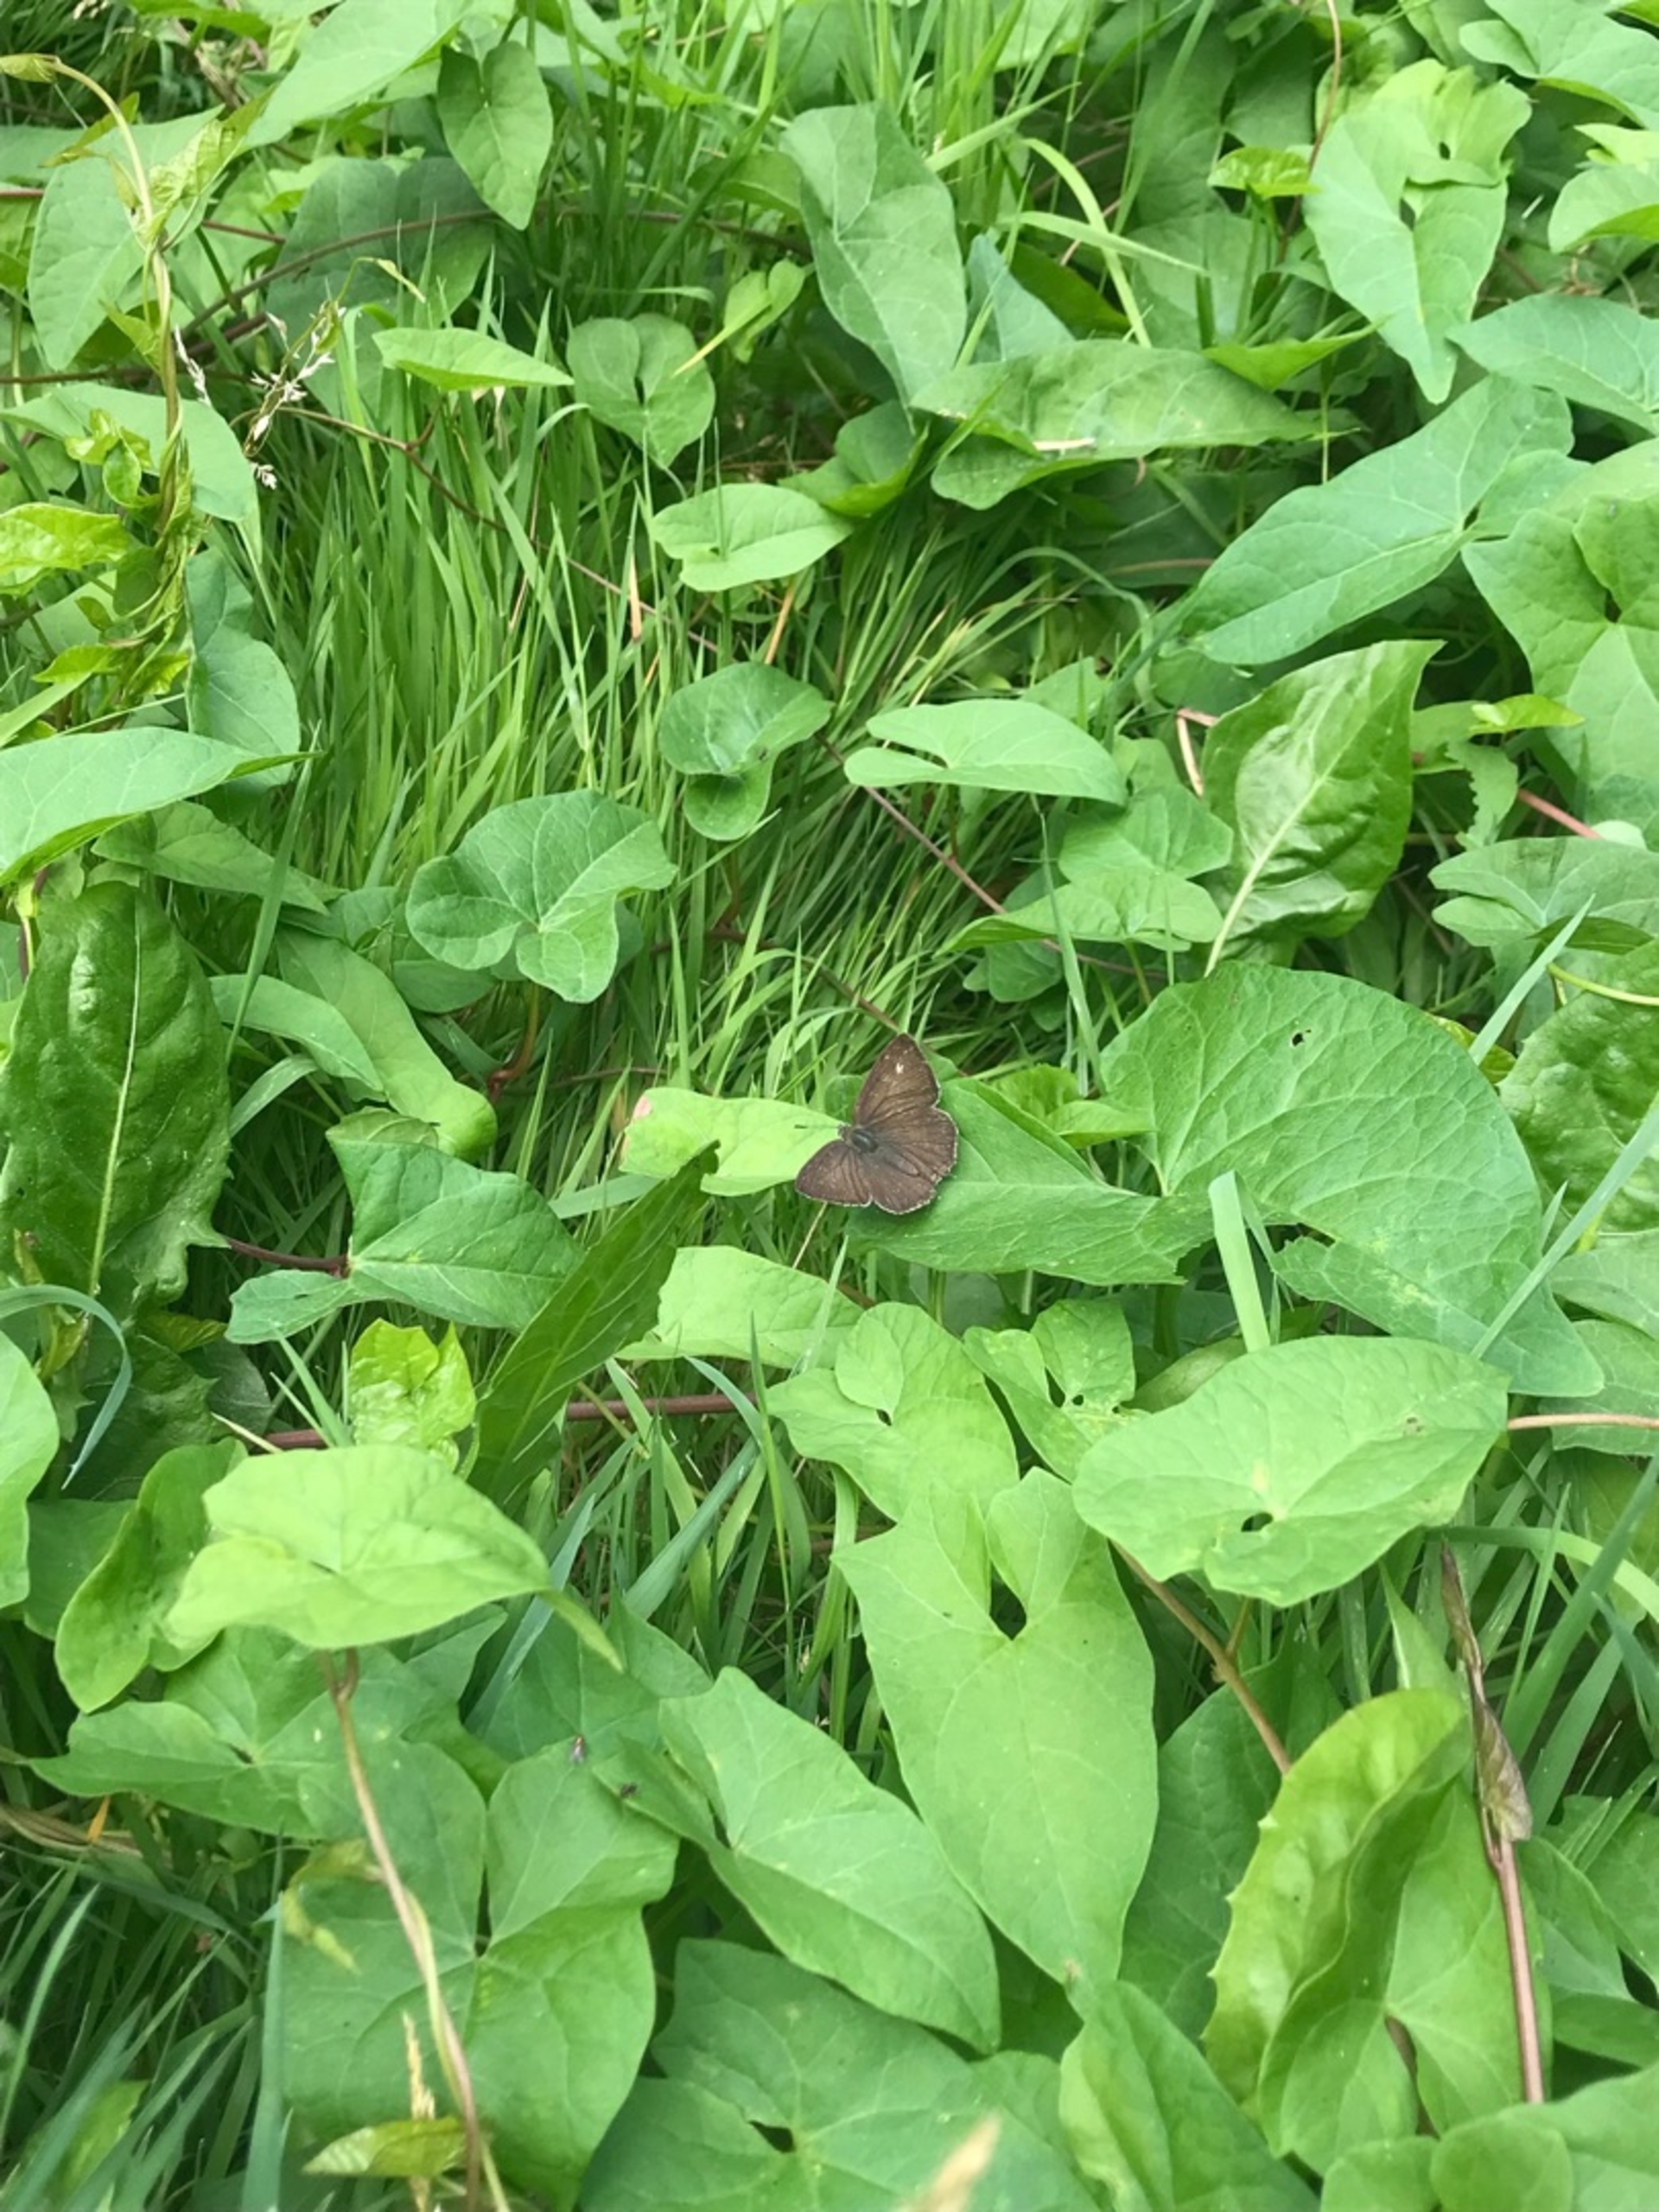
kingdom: Animalia
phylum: Arthropoda
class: Insecta
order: Lepidoptera
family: Lycaenidae
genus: Quercusia
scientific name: Quercusia quercus
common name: Blåhale
